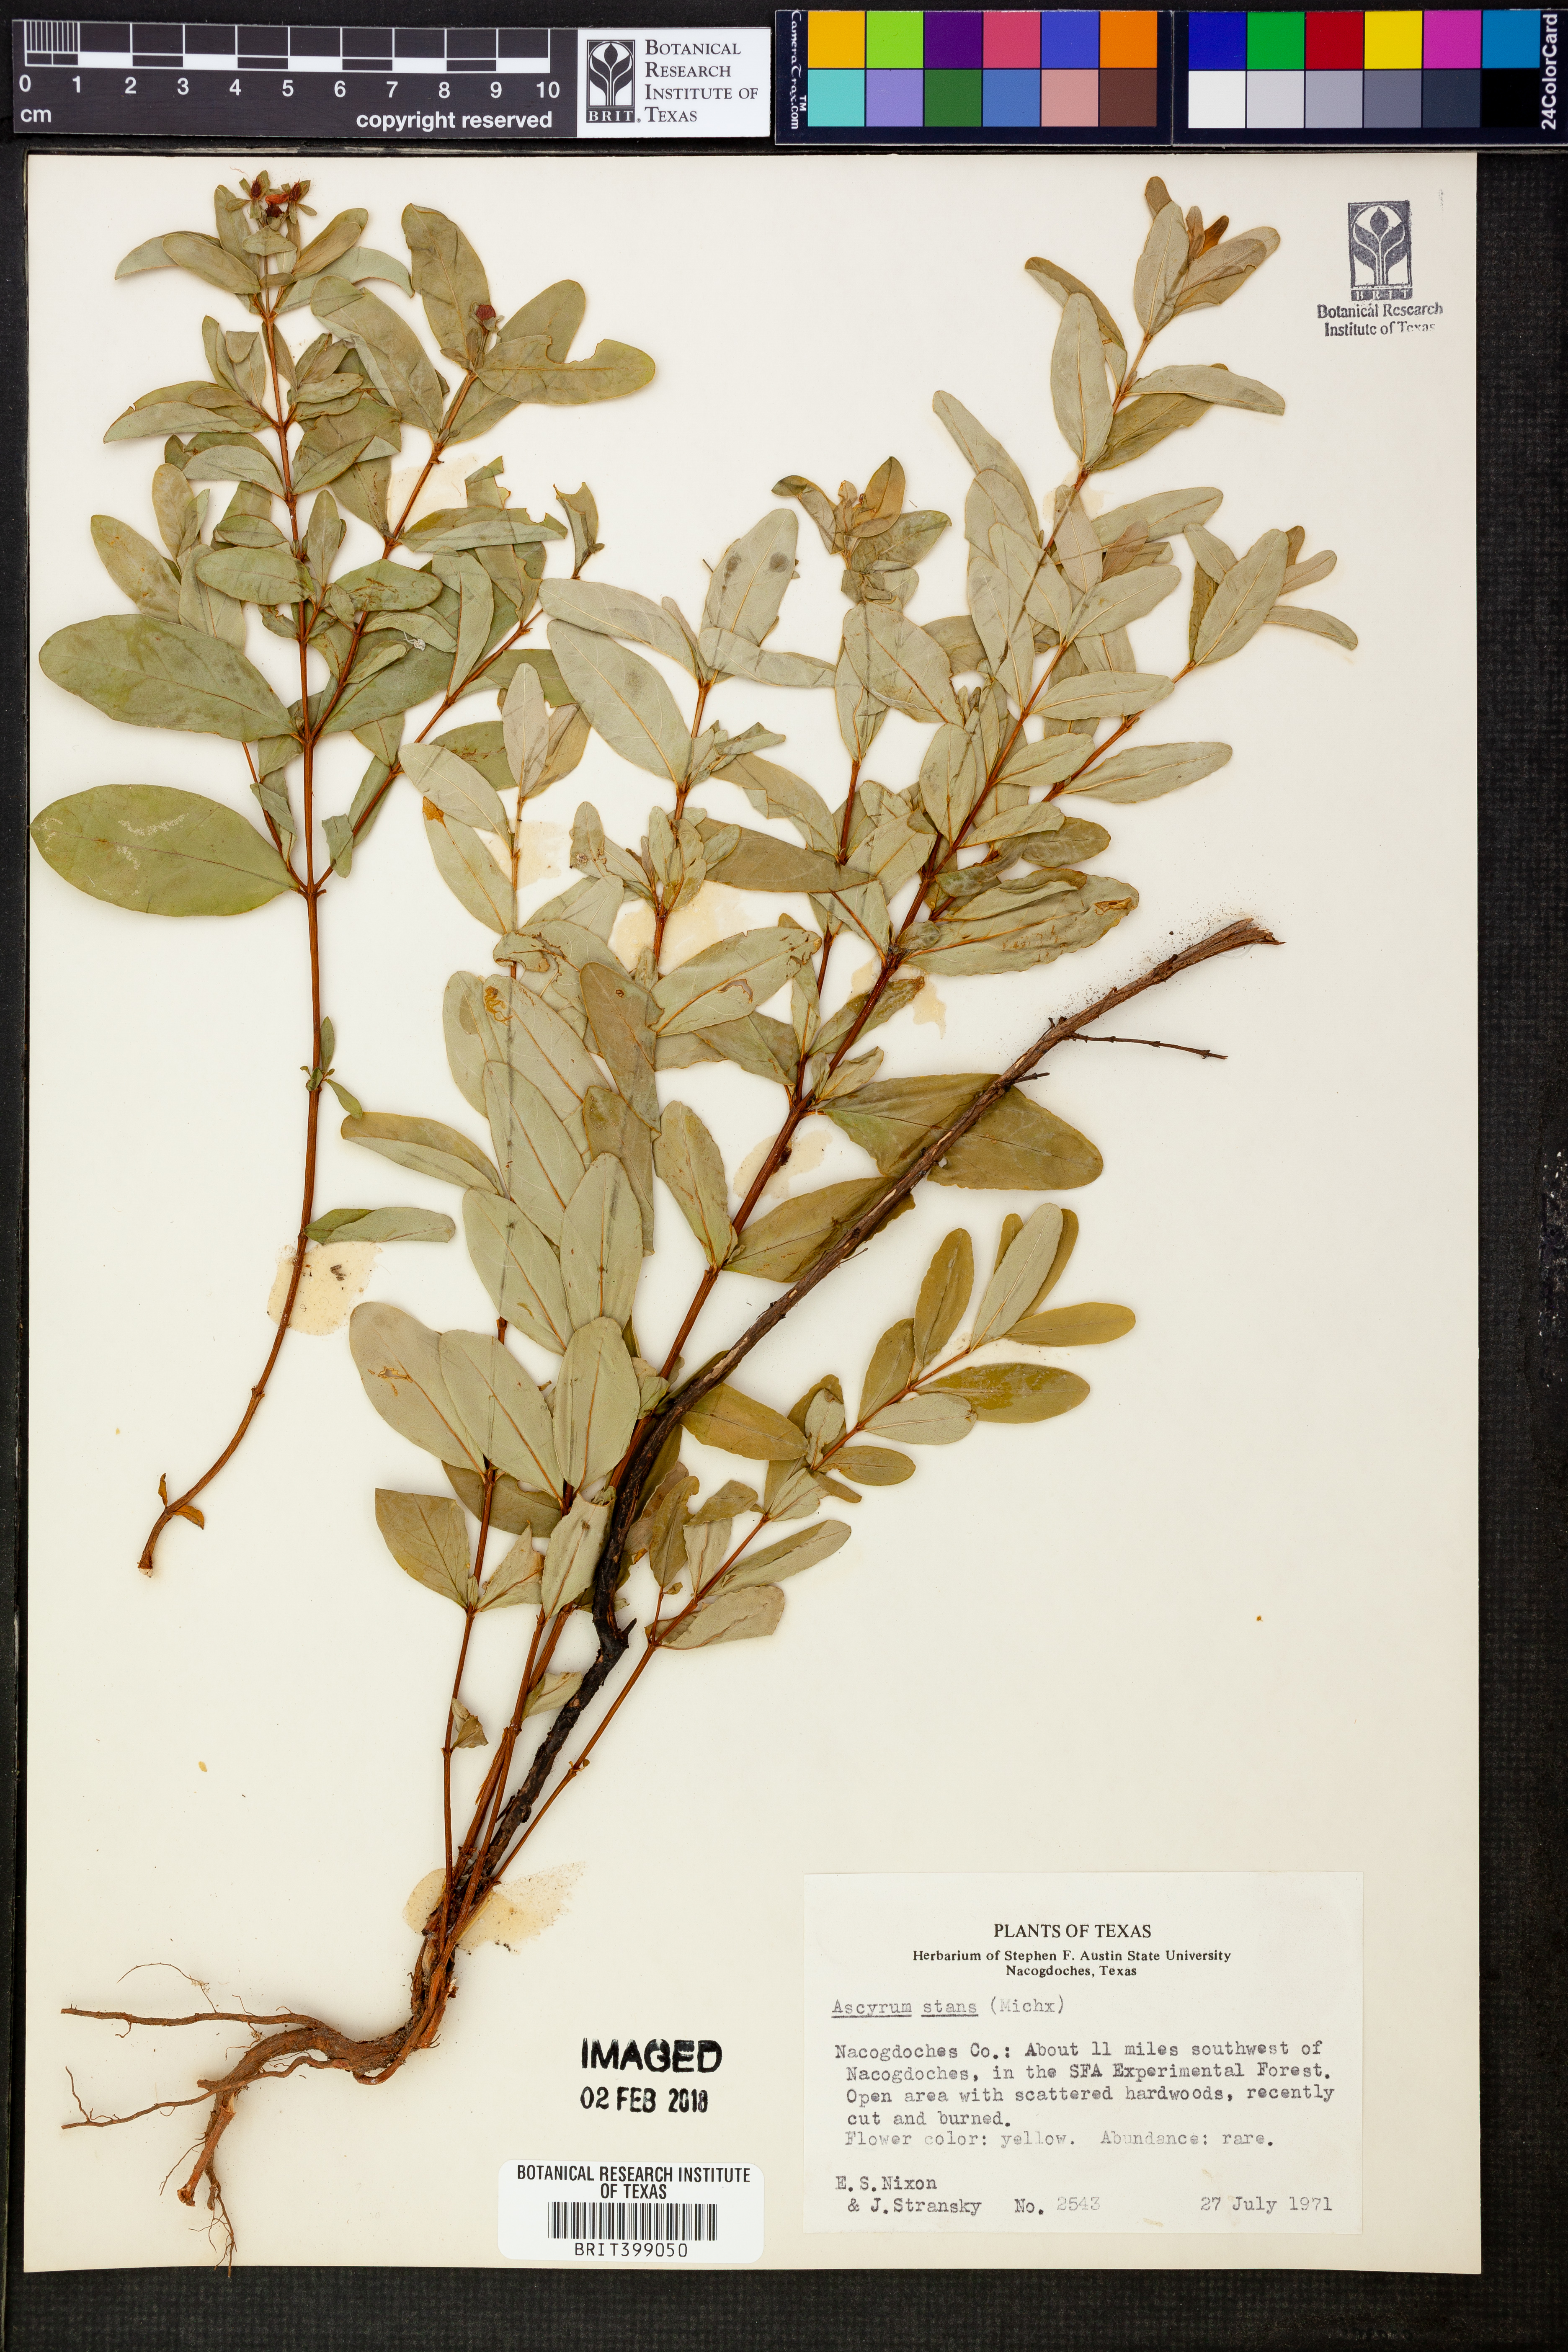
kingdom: Plantae
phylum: Tracheophyta
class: Magnoliopsida
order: Malpighiales
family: Hypericaceae
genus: Hypericum
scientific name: Hypericum crux-andreae
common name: St.-peter's-wort
